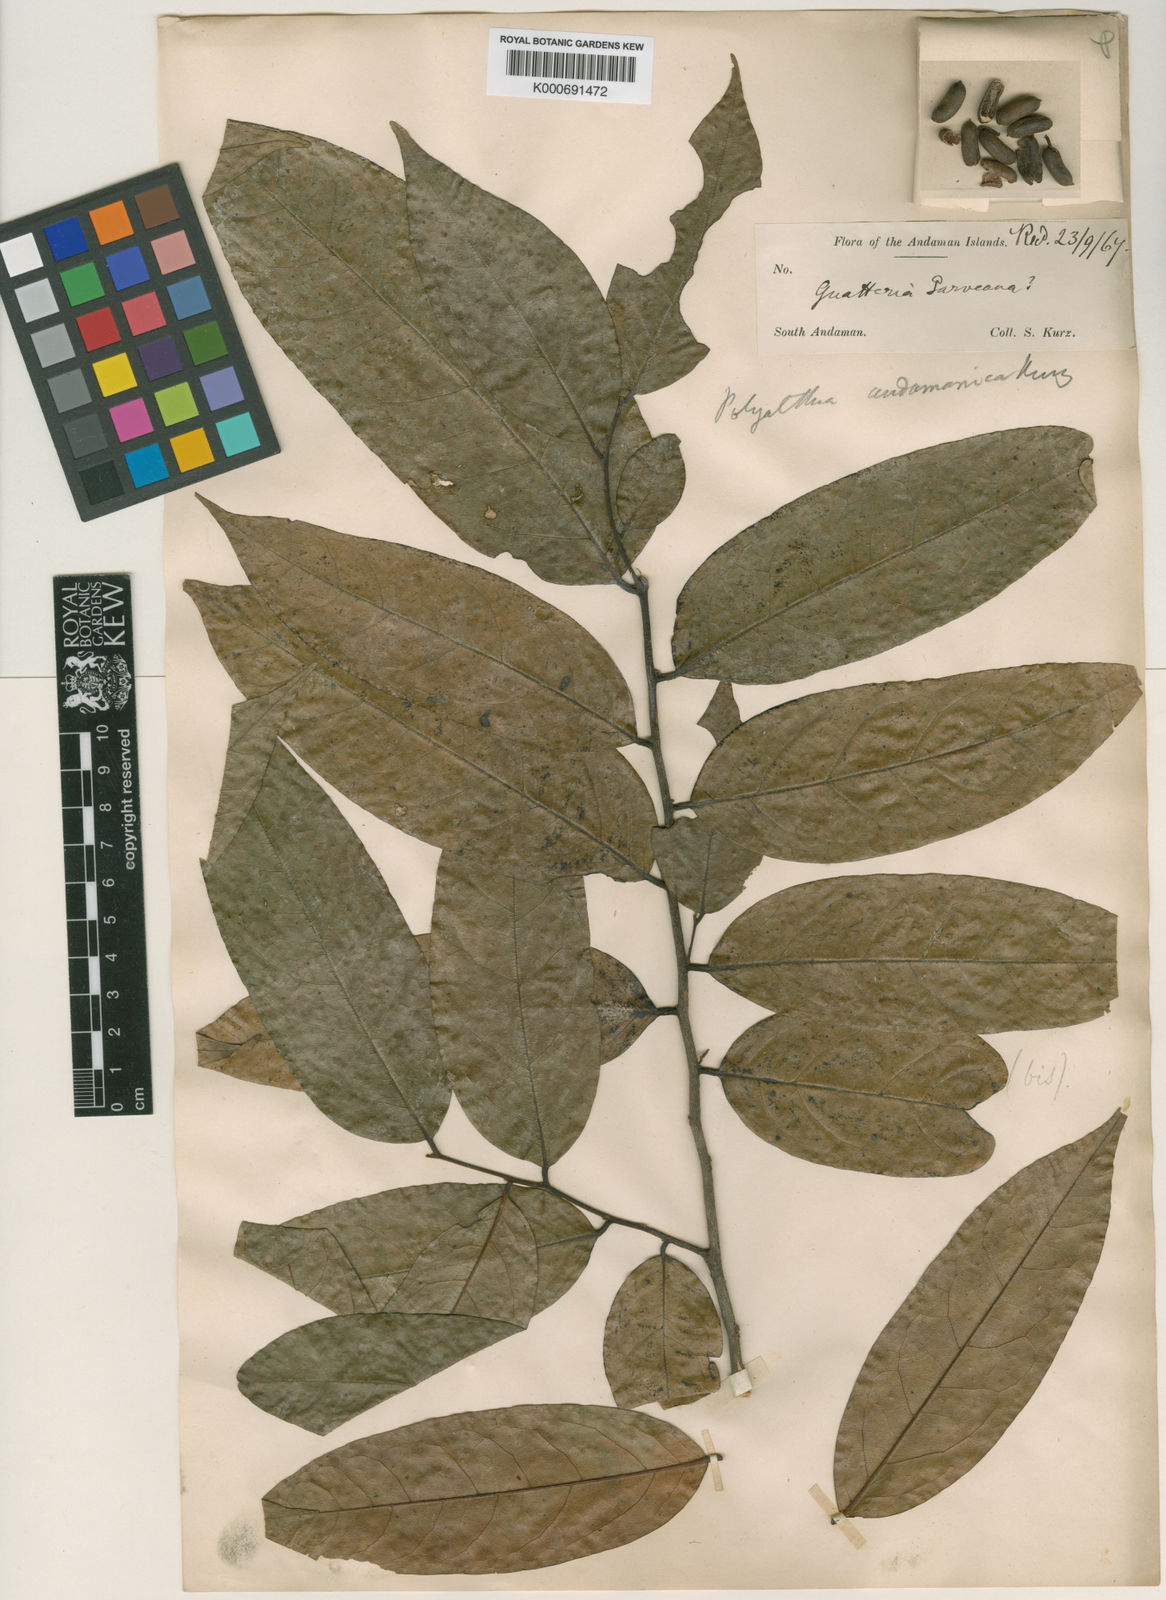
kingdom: Plantae
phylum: Tracheophyta
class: Magnoliopsida
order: Magnoliales
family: Annonaceae
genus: Polyalthia
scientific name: Polyalthia
